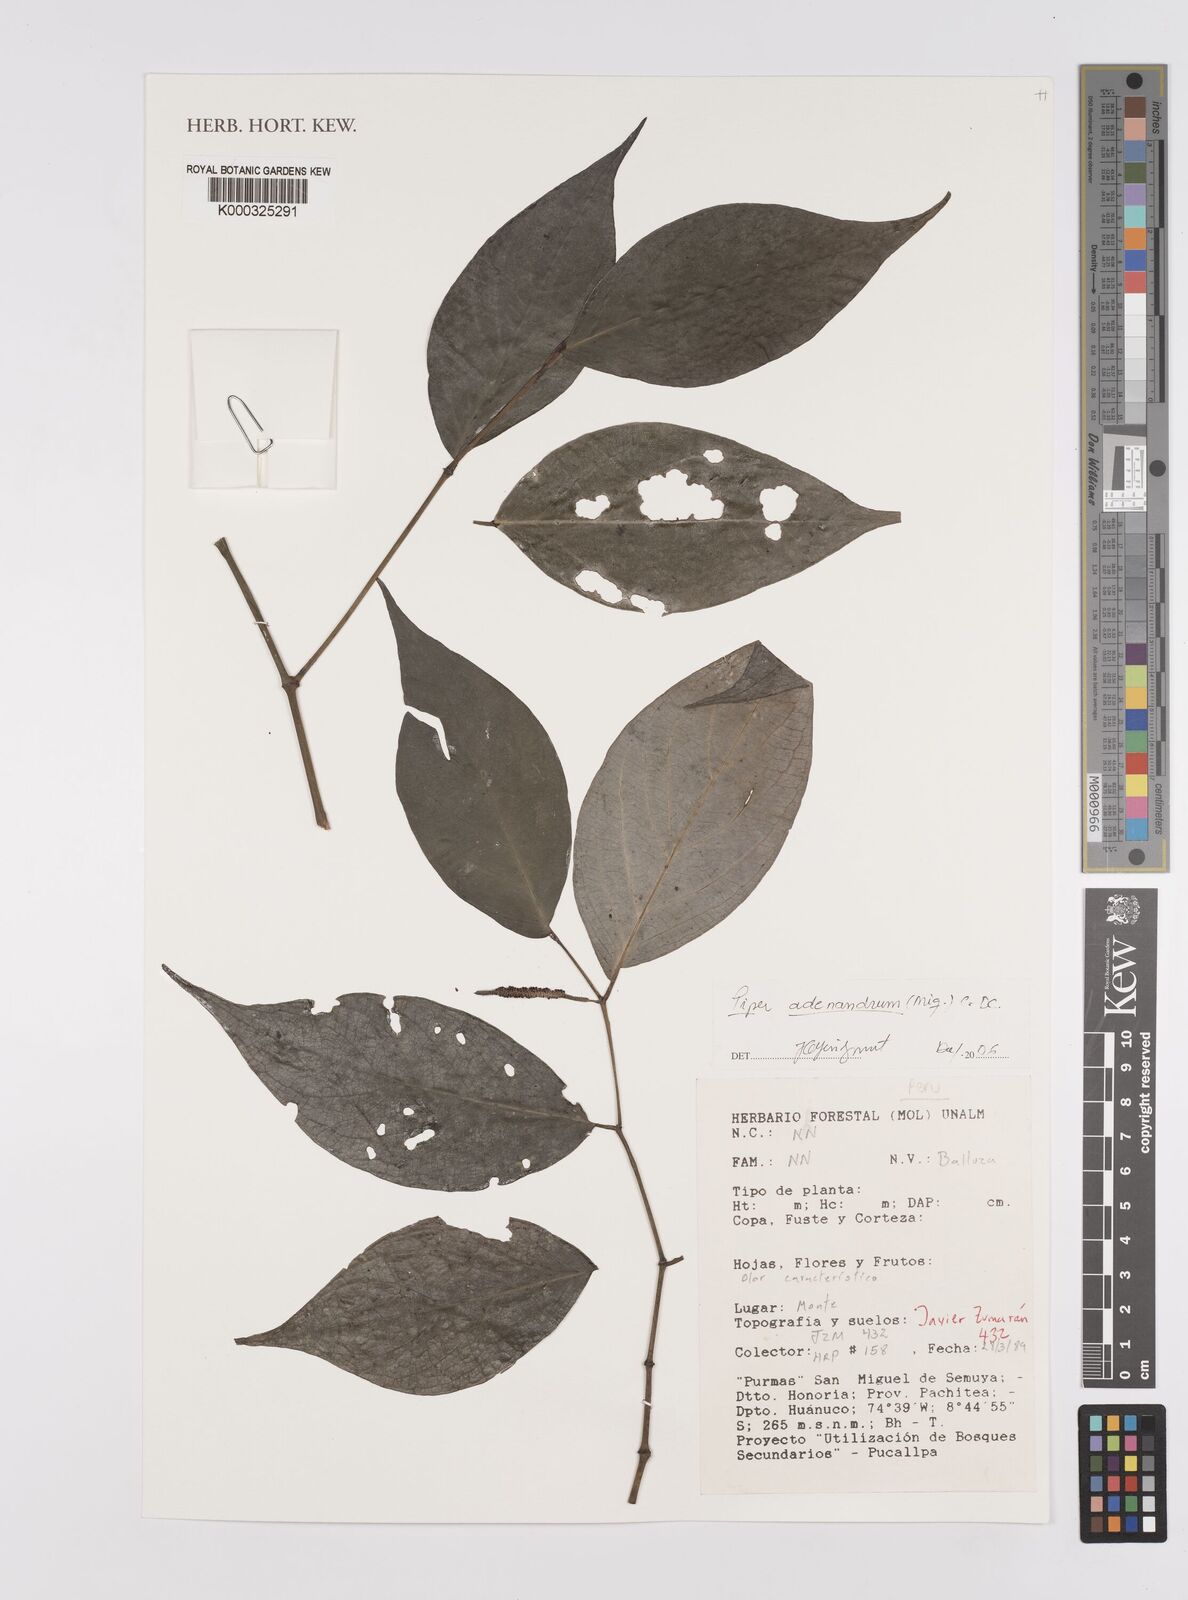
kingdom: Plantae
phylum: Tracheophyta
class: Magnoliopsida
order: Piperales
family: Piperaceae
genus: Piper
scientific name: Piper adenandrum
